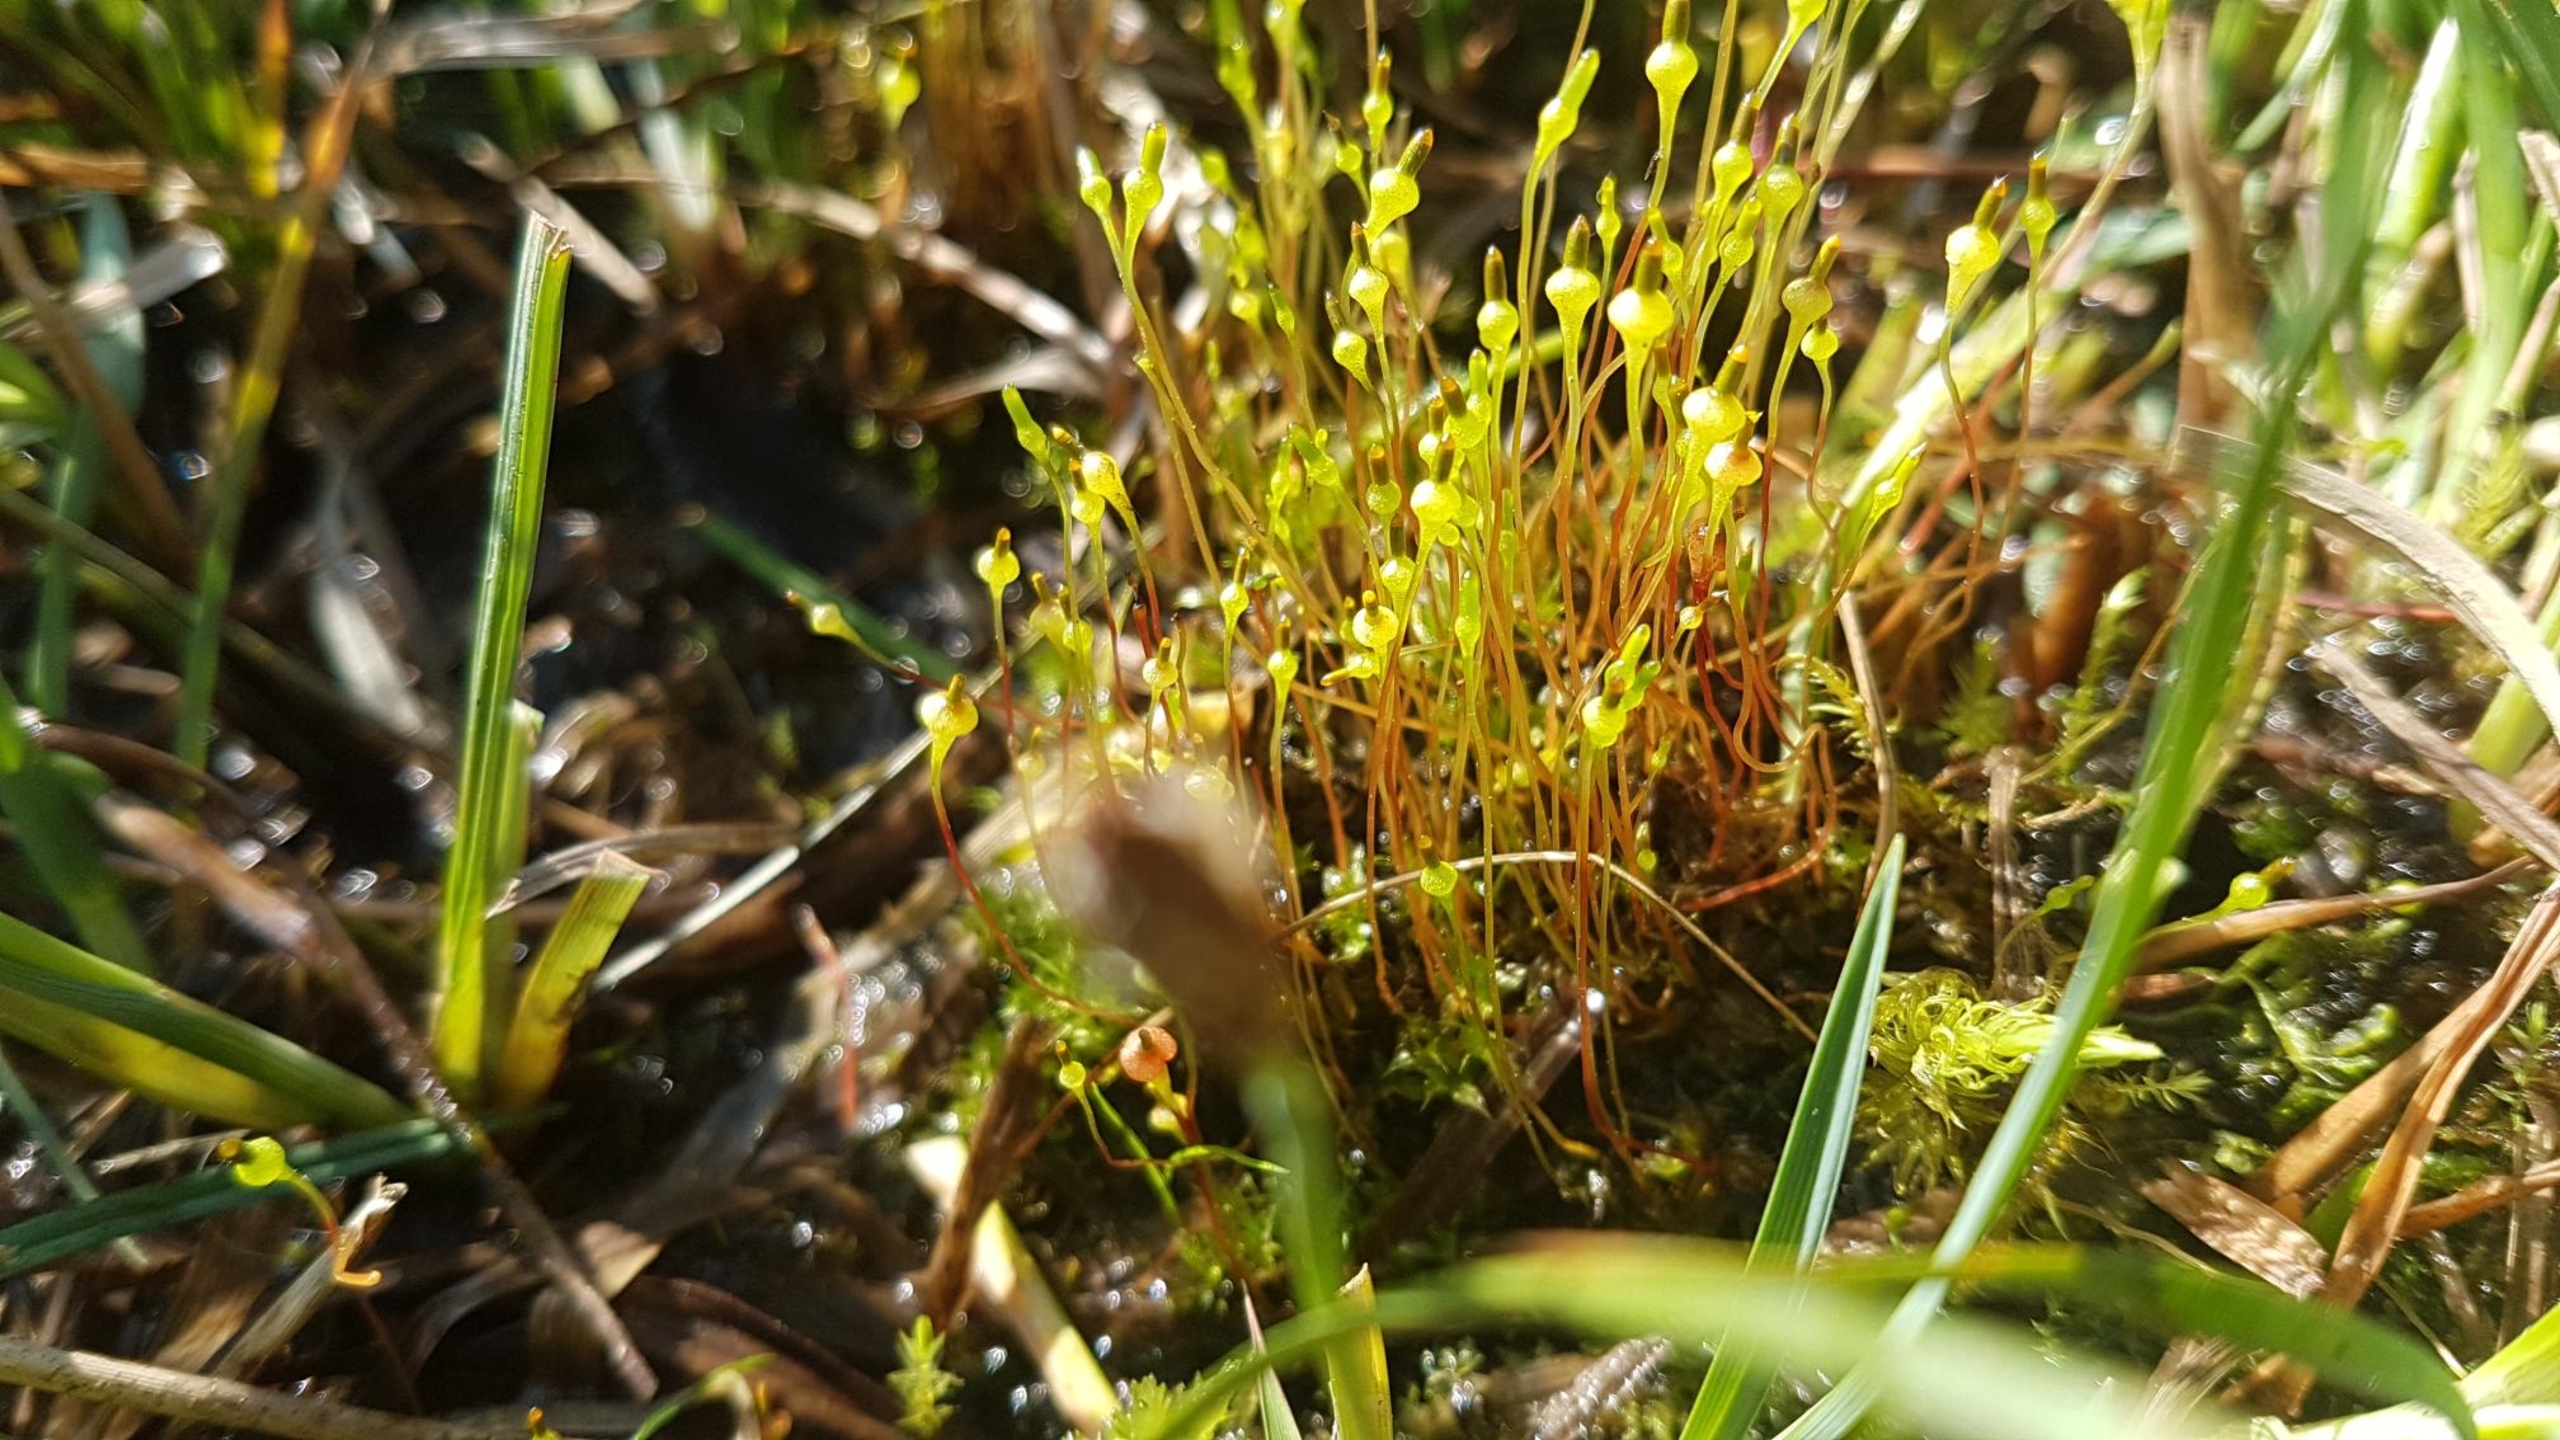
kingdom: Plantae
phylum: Bryophyta
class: Bryopsida
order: Splachnales
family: Splachnaceae
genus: Splachnum
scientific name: Splachnum ampullaceum
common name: Pære-møgmos
